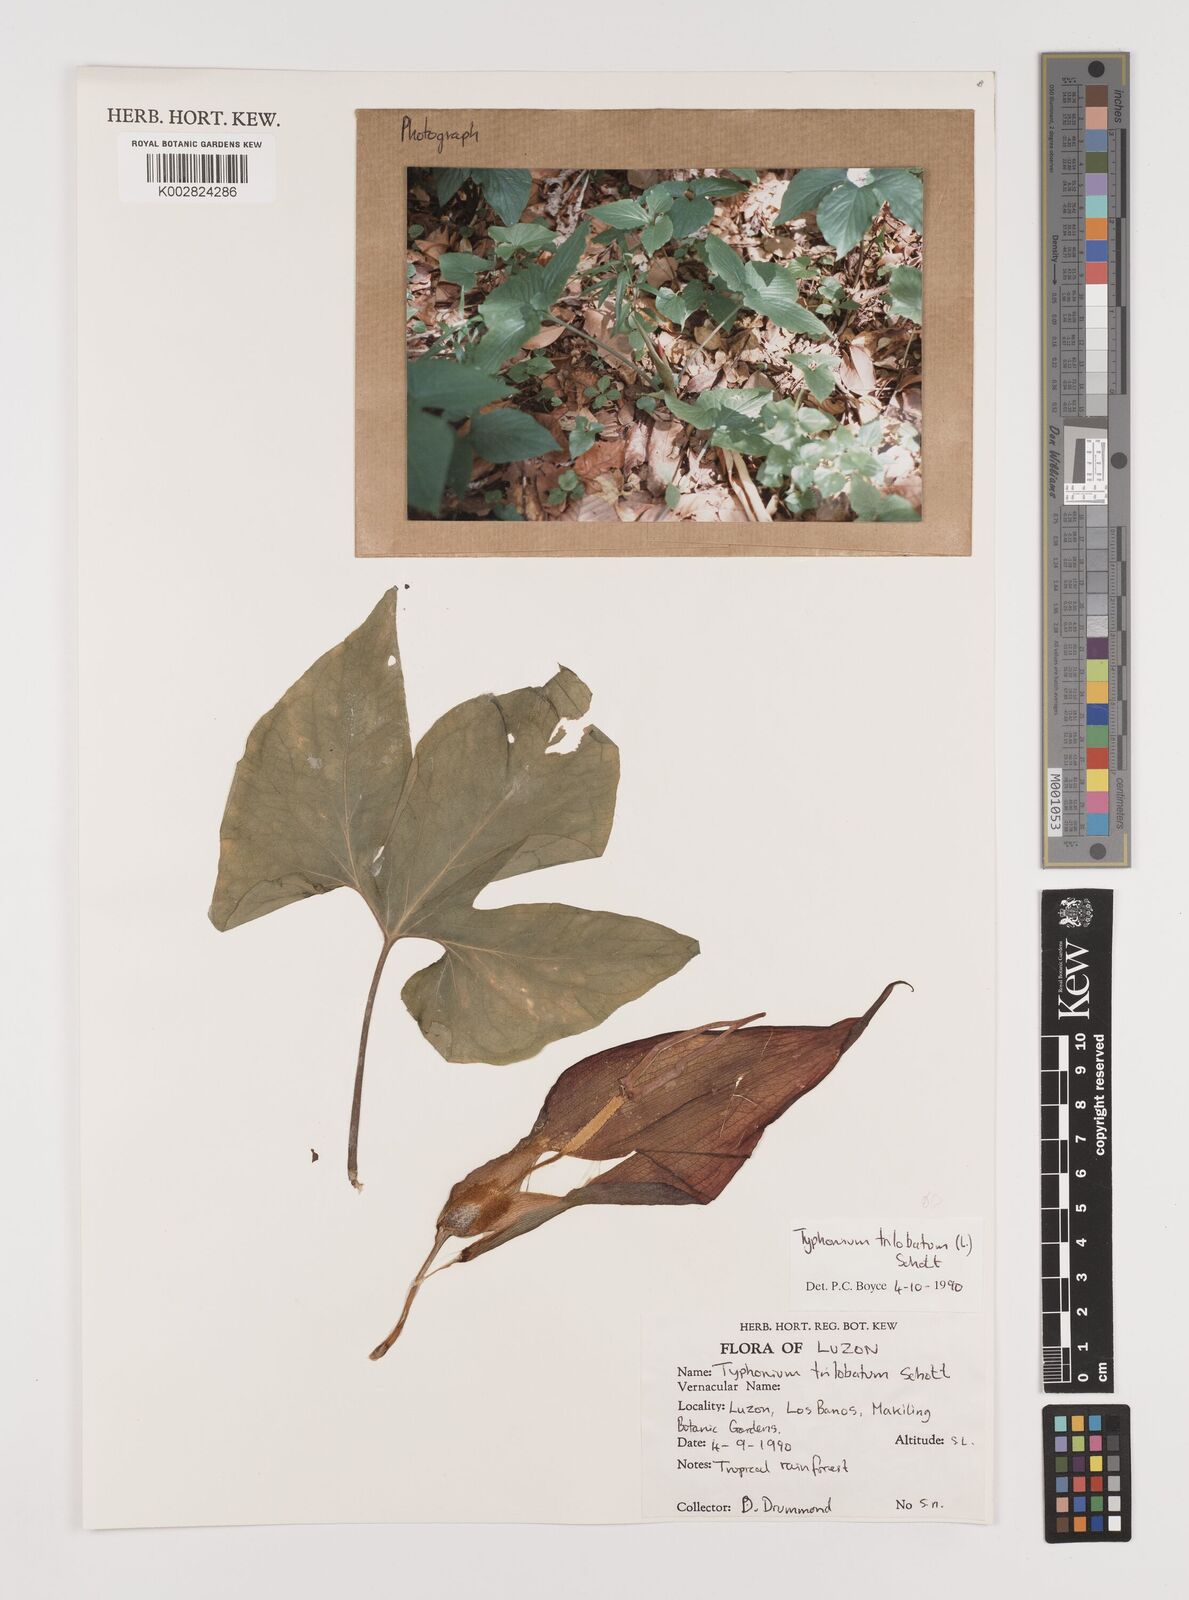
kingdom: Plantae
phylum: Tracheophyta
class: Liliopsida
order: Alismatales
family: Araceae
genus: Typhonium
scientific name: Typhonium trilobatum
